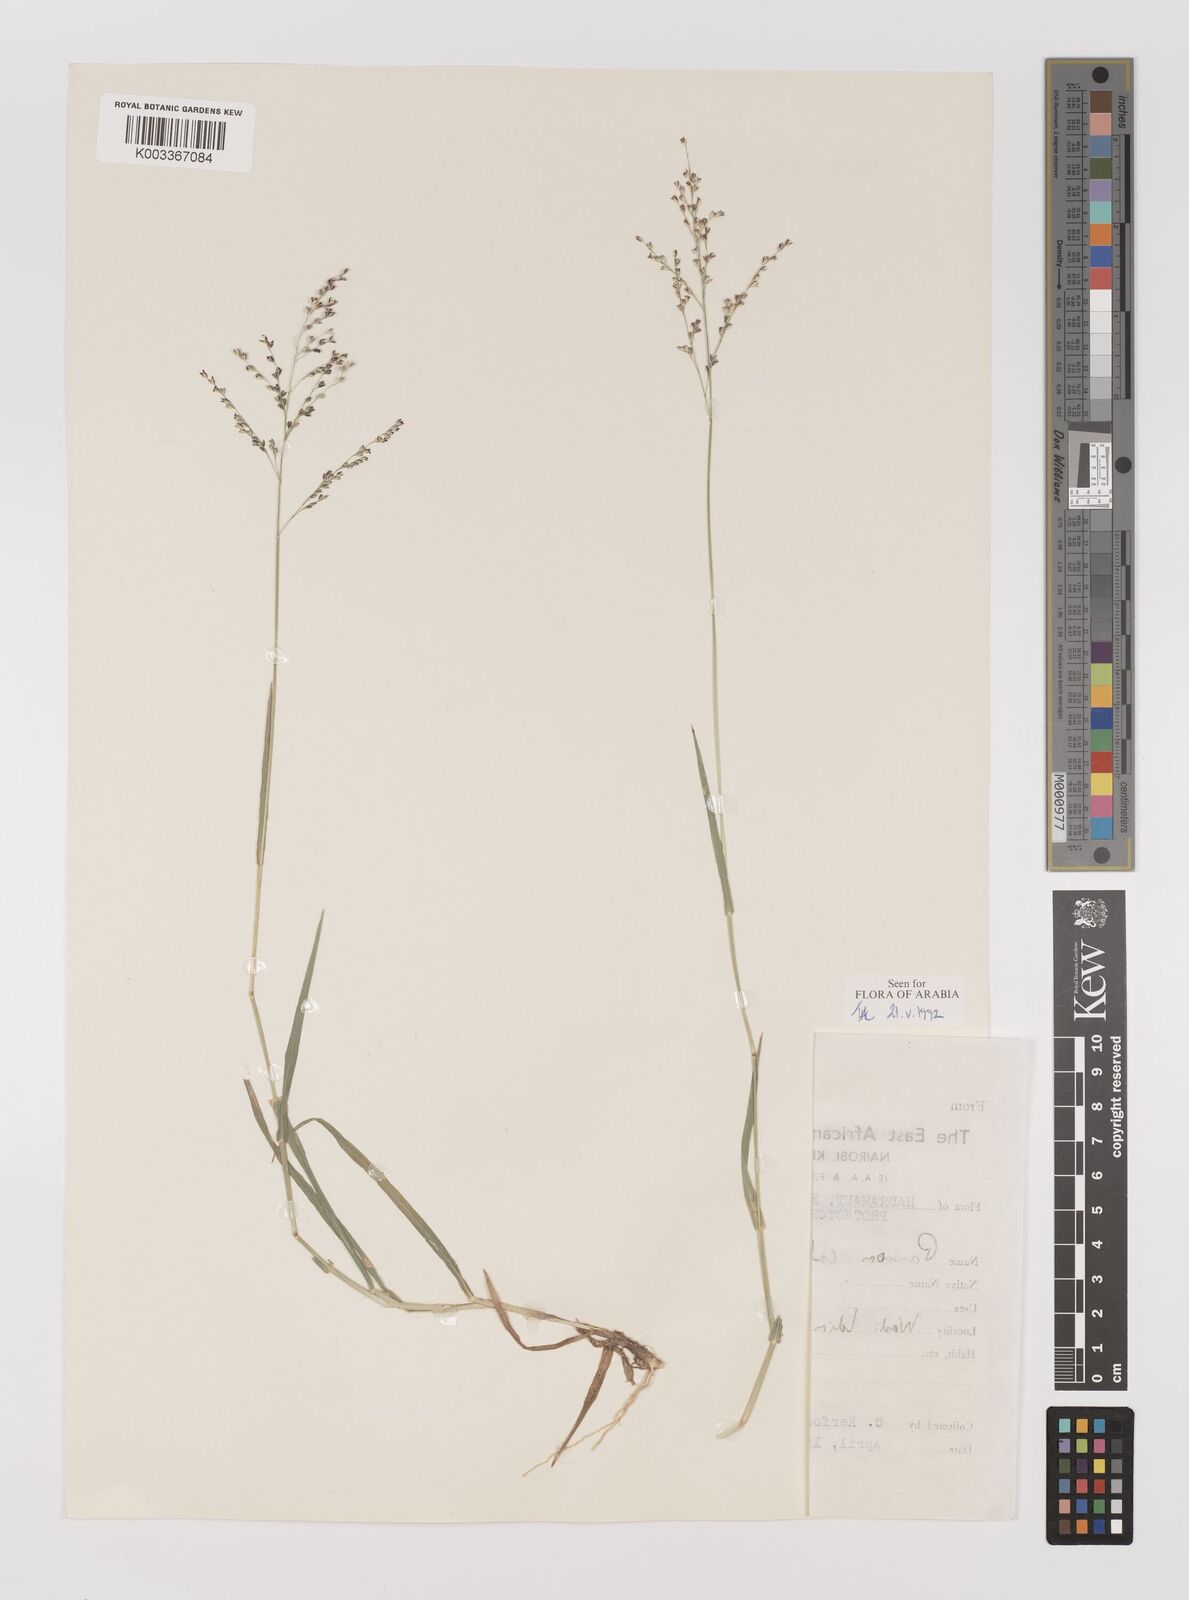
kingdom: Plantae
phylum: Tracheophyta
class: Liliopsida
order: Poales
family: Poaceae
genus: Panicum
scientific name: Panicum coloratum
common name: Kleingrass
